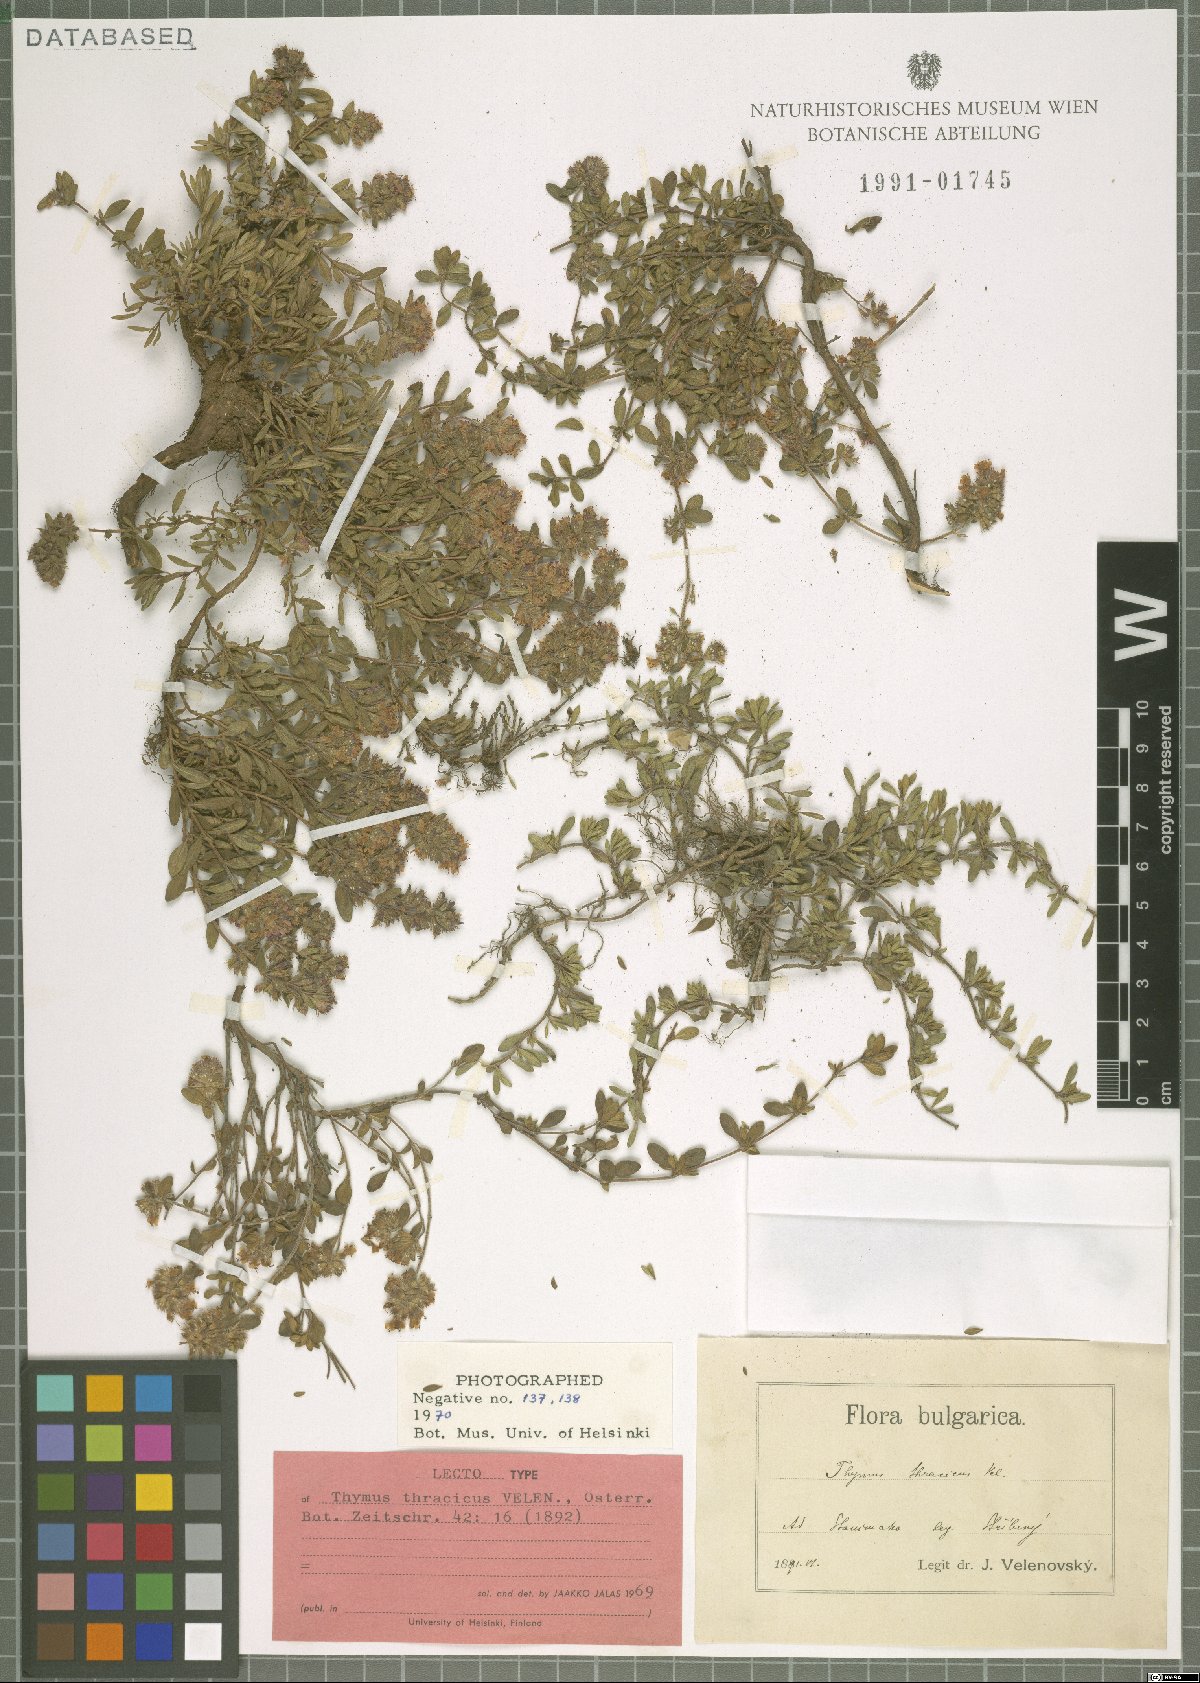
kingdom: Plantae
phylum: Tracheophyta
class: Magnoliopsida
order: Lamiales
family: Lamiaceae
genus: Thymus
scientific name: Thymus thracicus
